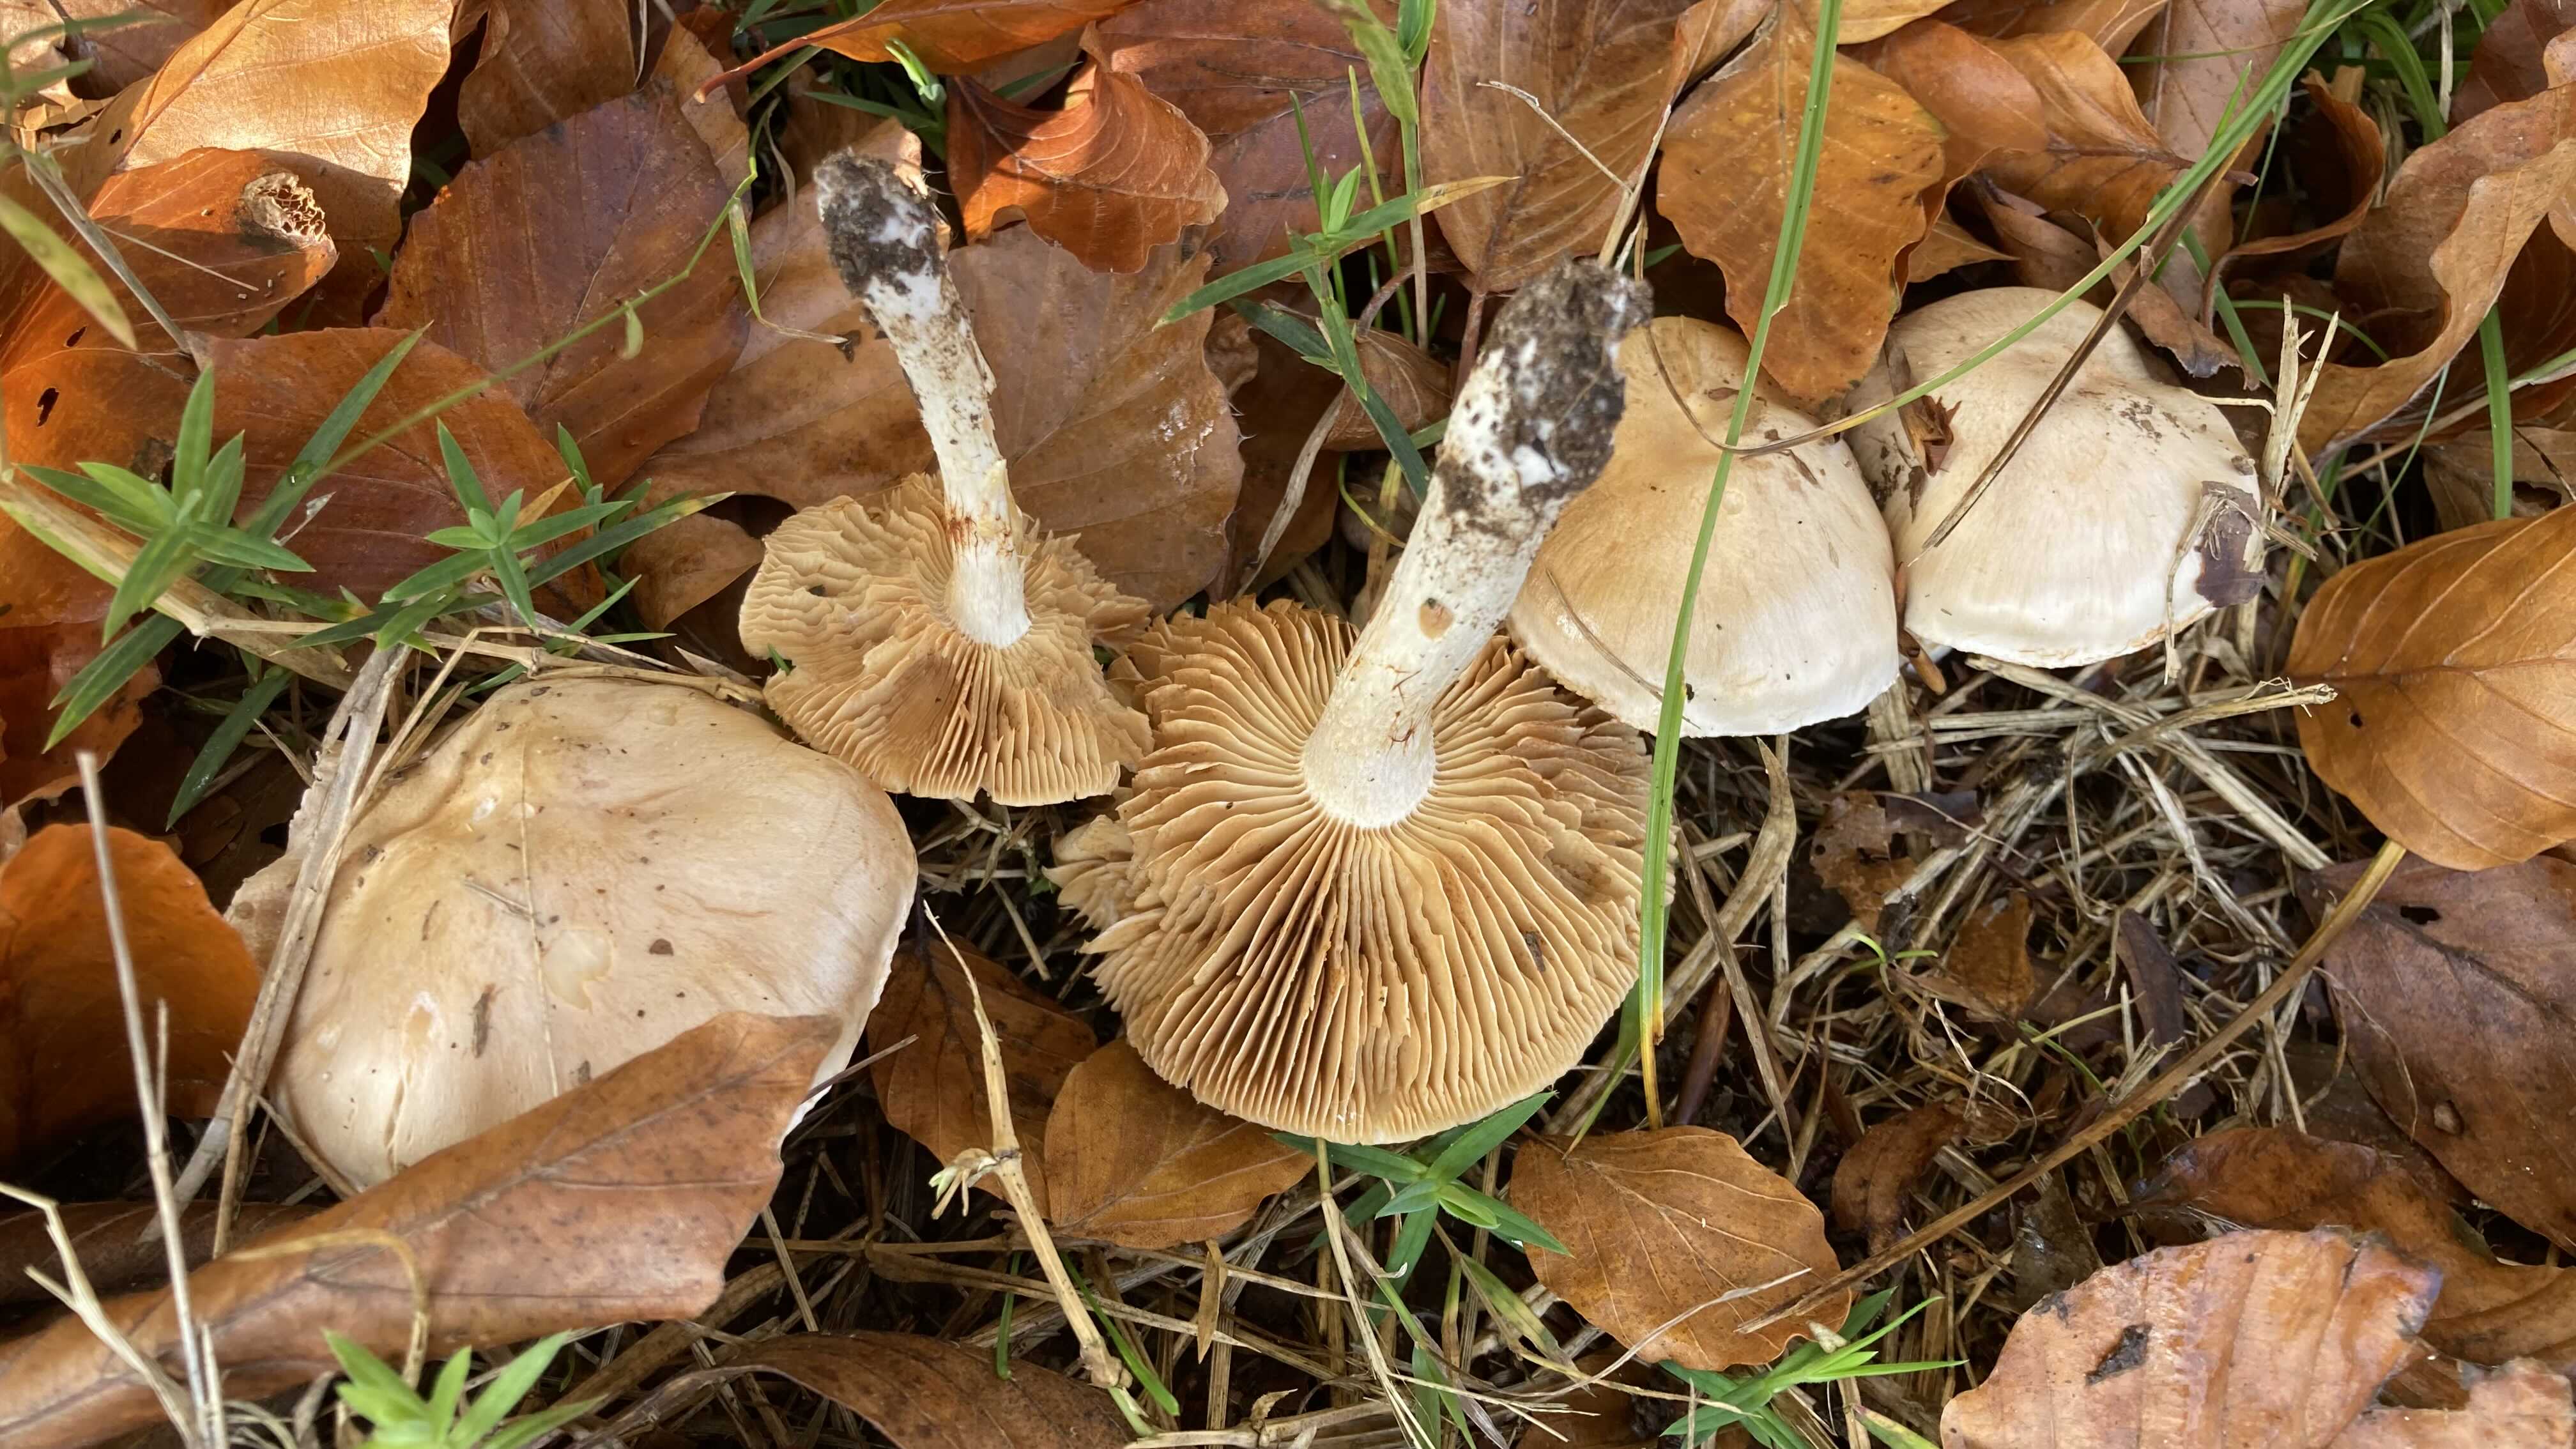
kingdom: Fungi
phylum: Basidiomycota
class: Agaricomycetes
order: Agaricales
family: Cortinariaceae
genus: Cortinarius
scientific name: Cortinarius
